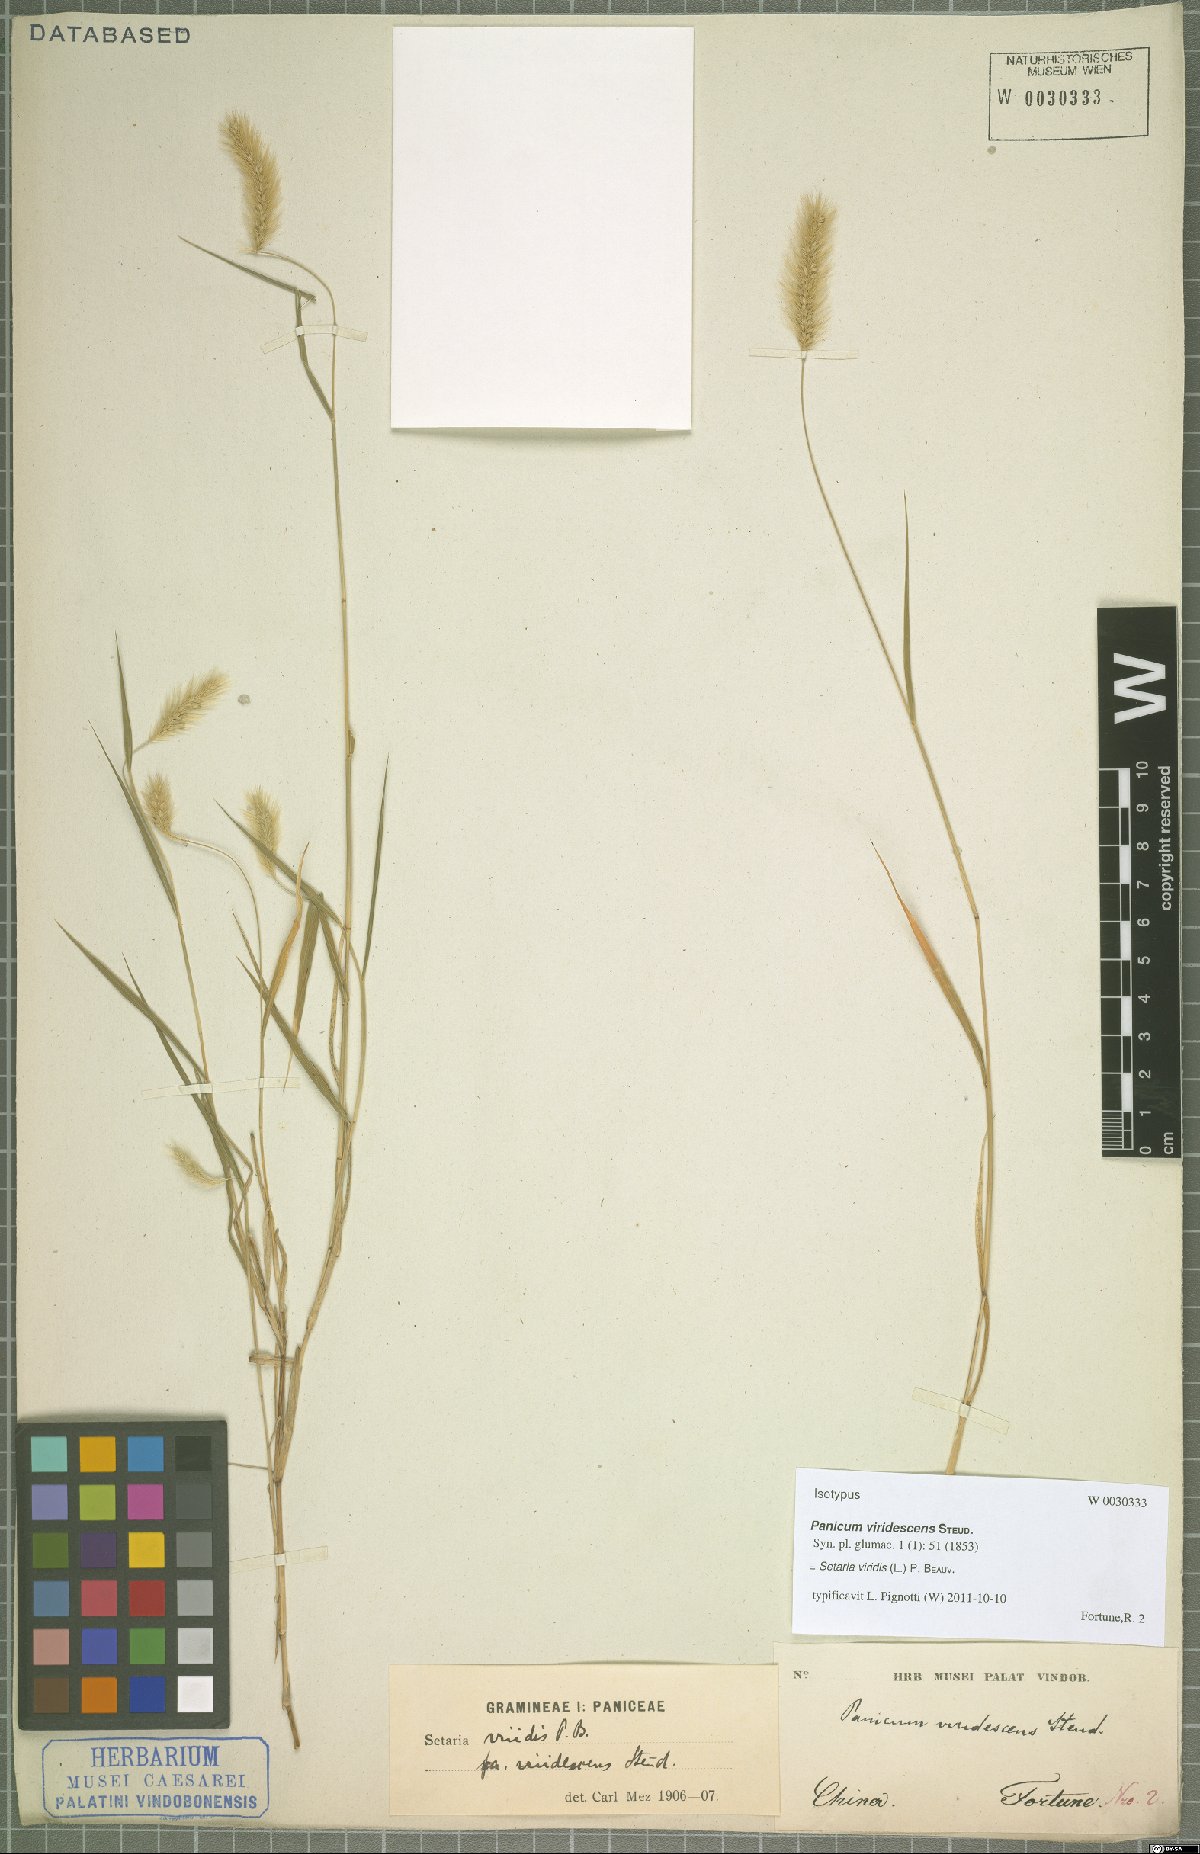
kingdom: Plantae
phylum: Tracheophyta
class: Liliopsida
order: Poales
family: Poaceae
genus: Setaria
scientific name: Setaria viridis
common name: Green bristlegrass
